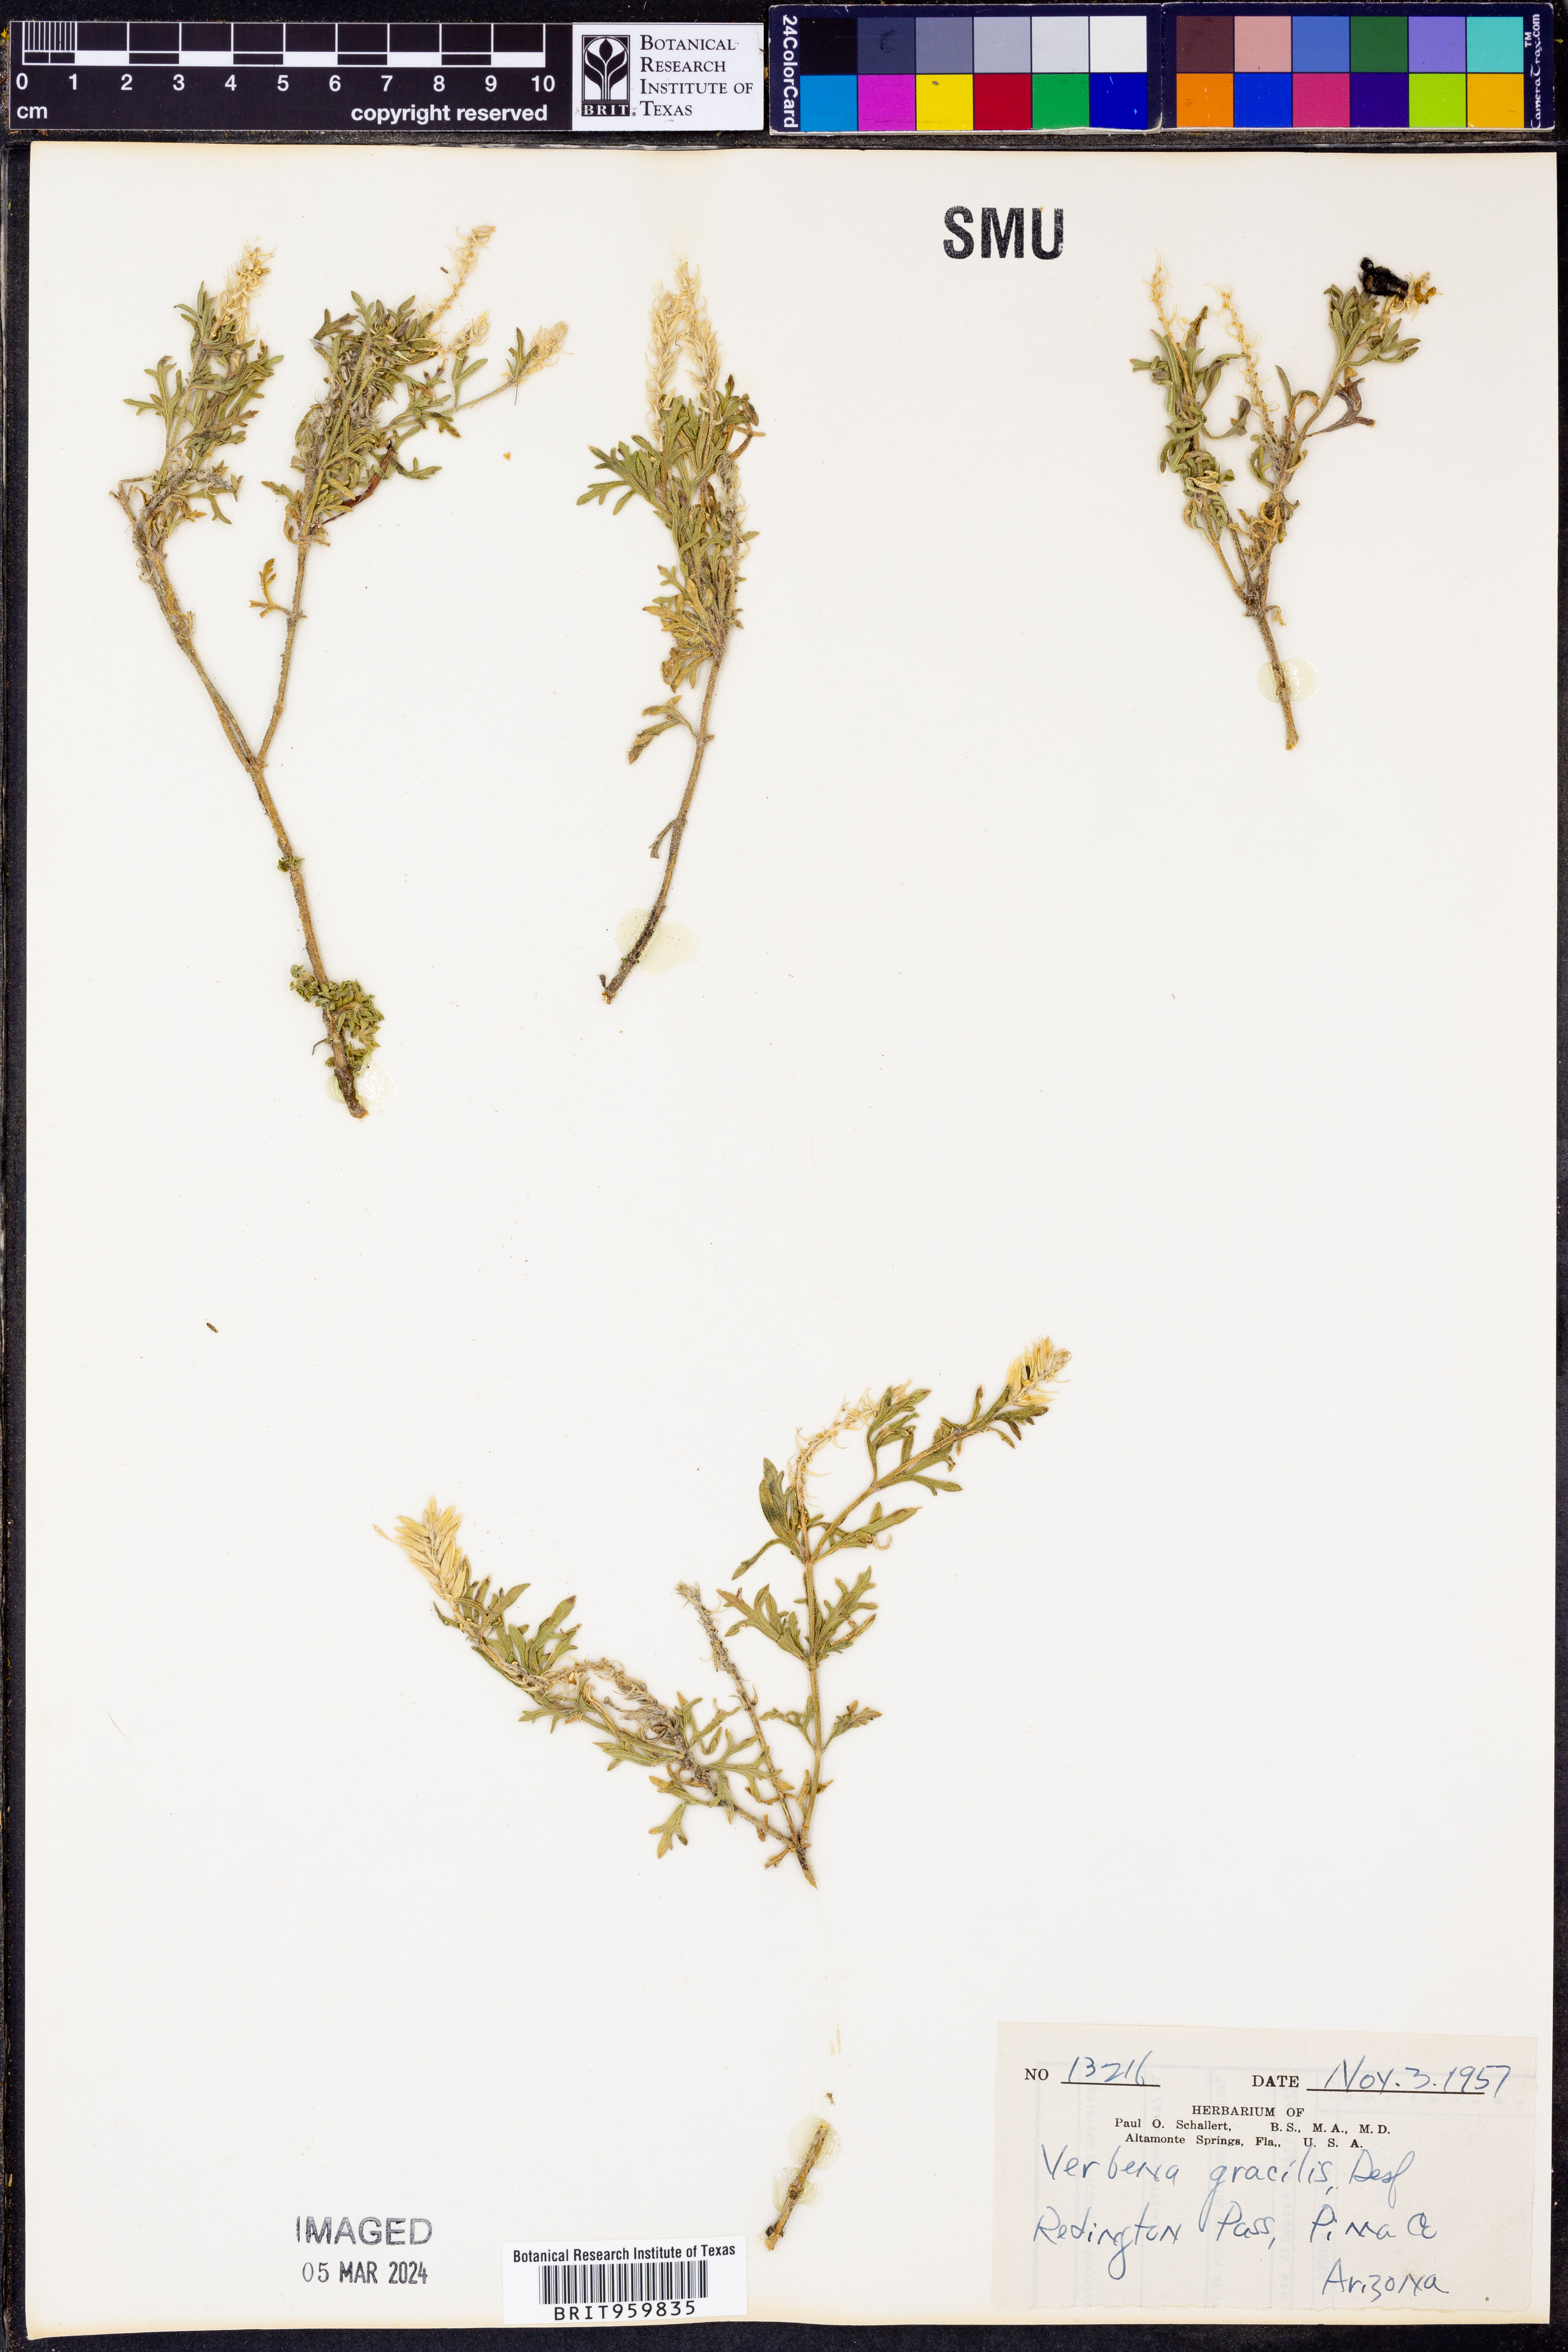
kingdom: Plantae
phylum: Tracheophyta
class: Magnoliopsida
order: Lamiales
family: Verbenaceae
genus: Verbena
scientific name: Verbena bipinnatifida
